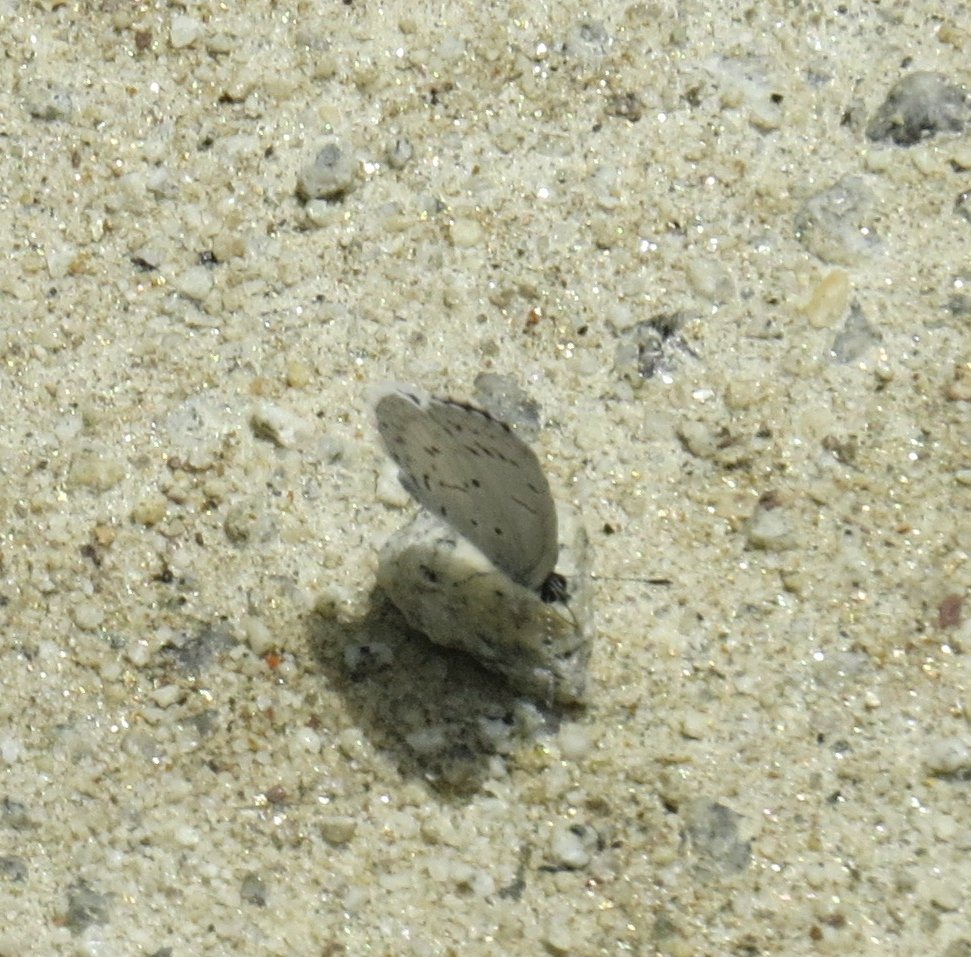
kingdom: Animalia
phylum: Arthropoda
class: Insecta
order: Lepidoptera
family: Lycaenidae
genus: Cyaniris
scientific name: Cyaniris neglecta
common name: Summer Azure
